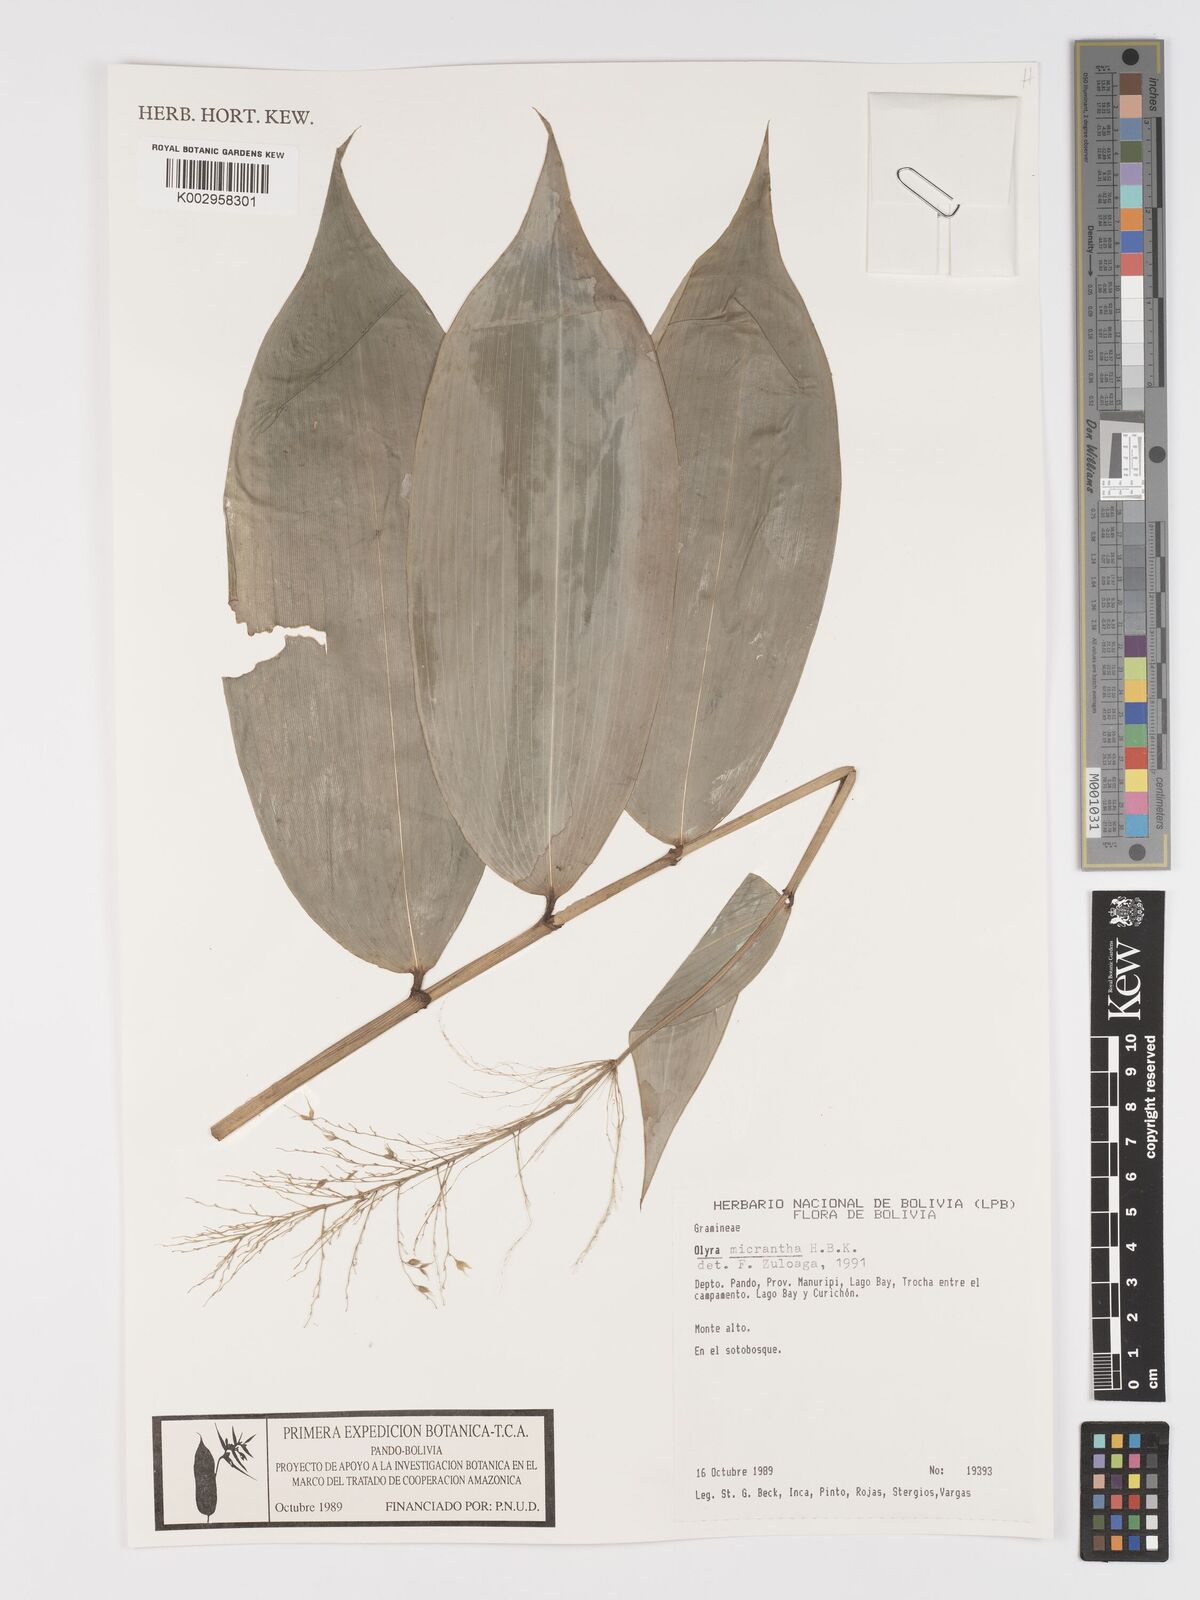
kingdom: Plantae
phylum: Tracheophyta
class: Liliopsida
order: Poales
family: Poaceae
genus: Taquara
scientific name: Taquara micrantha
